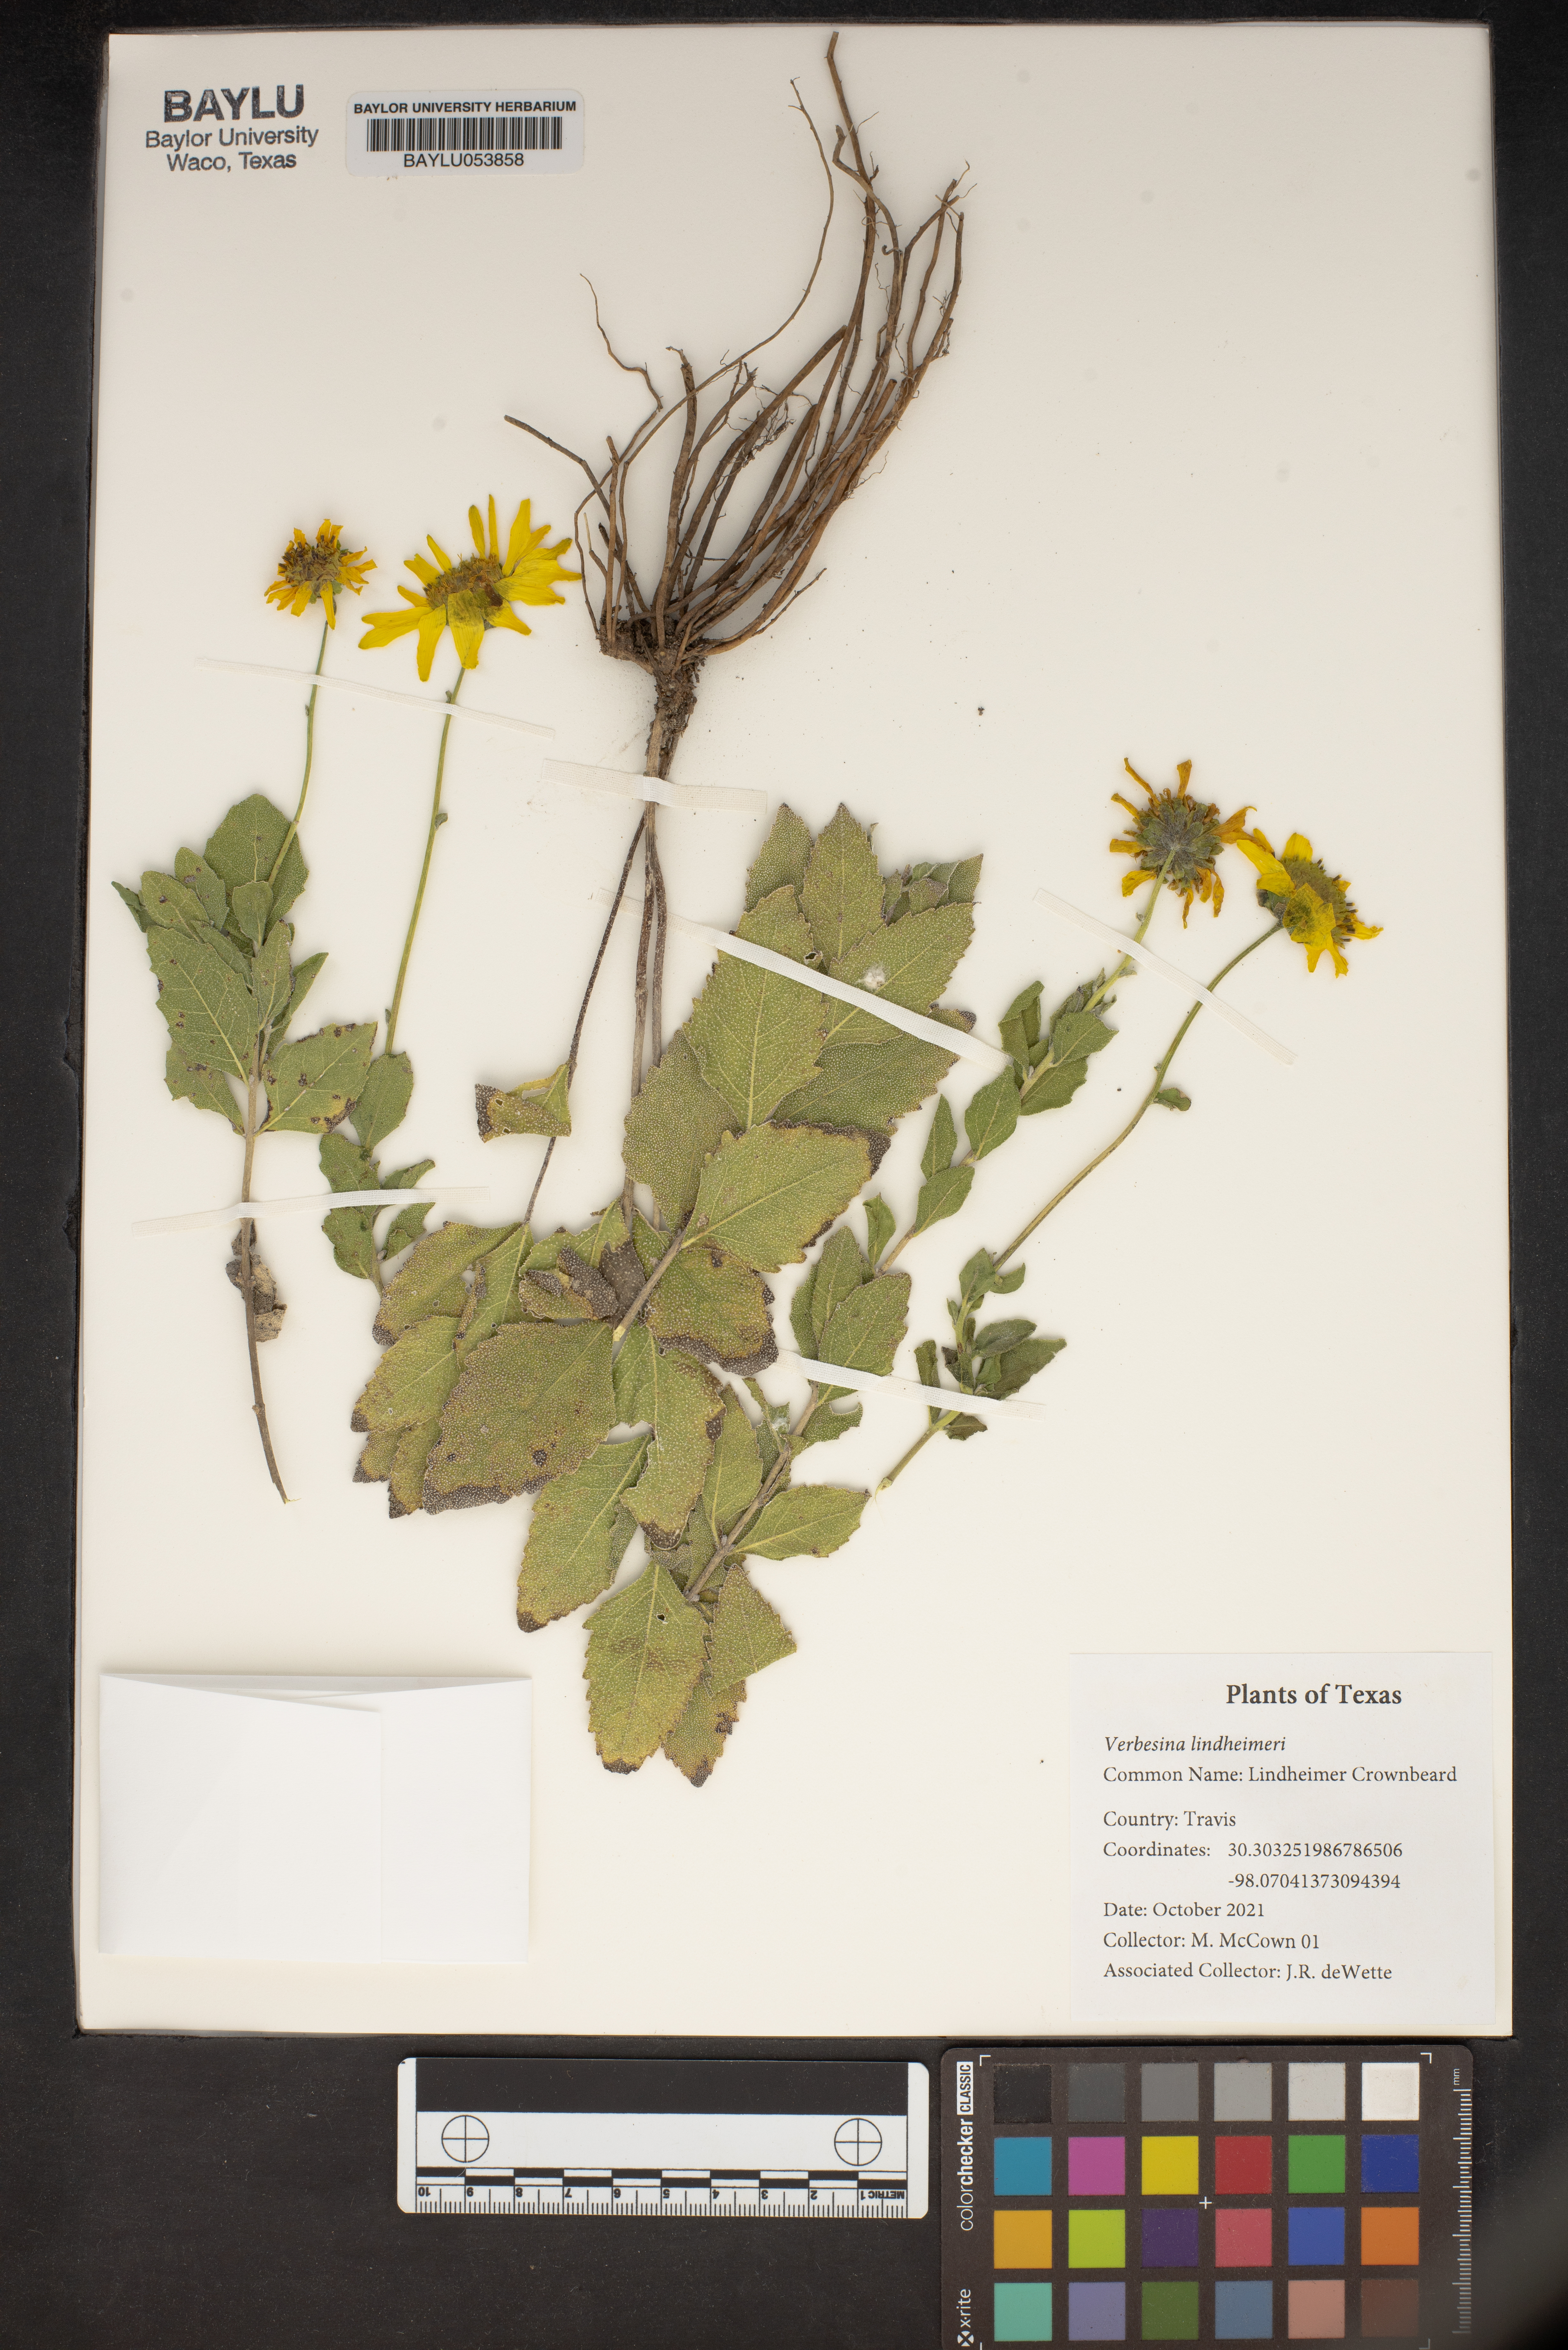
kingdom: Plantae
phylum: Tracheophyta
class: Magnoliopsida
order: Asterales
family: Asteraceae
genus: Verbesina
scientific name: Verbesina lindheimeri
